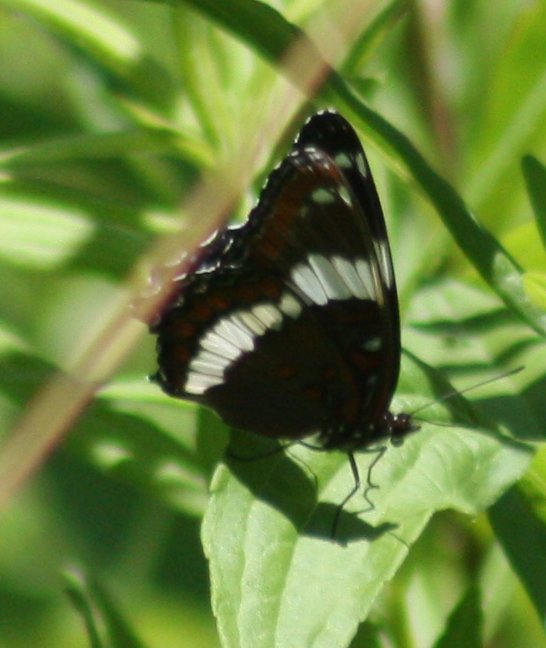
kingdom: Animalia
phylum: Arthropoda
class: Insecta
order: Lepidoptera
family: Nymphalidae
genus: Limenitis
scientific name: Limenitis arthemis
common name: Red-spotted Admiral
